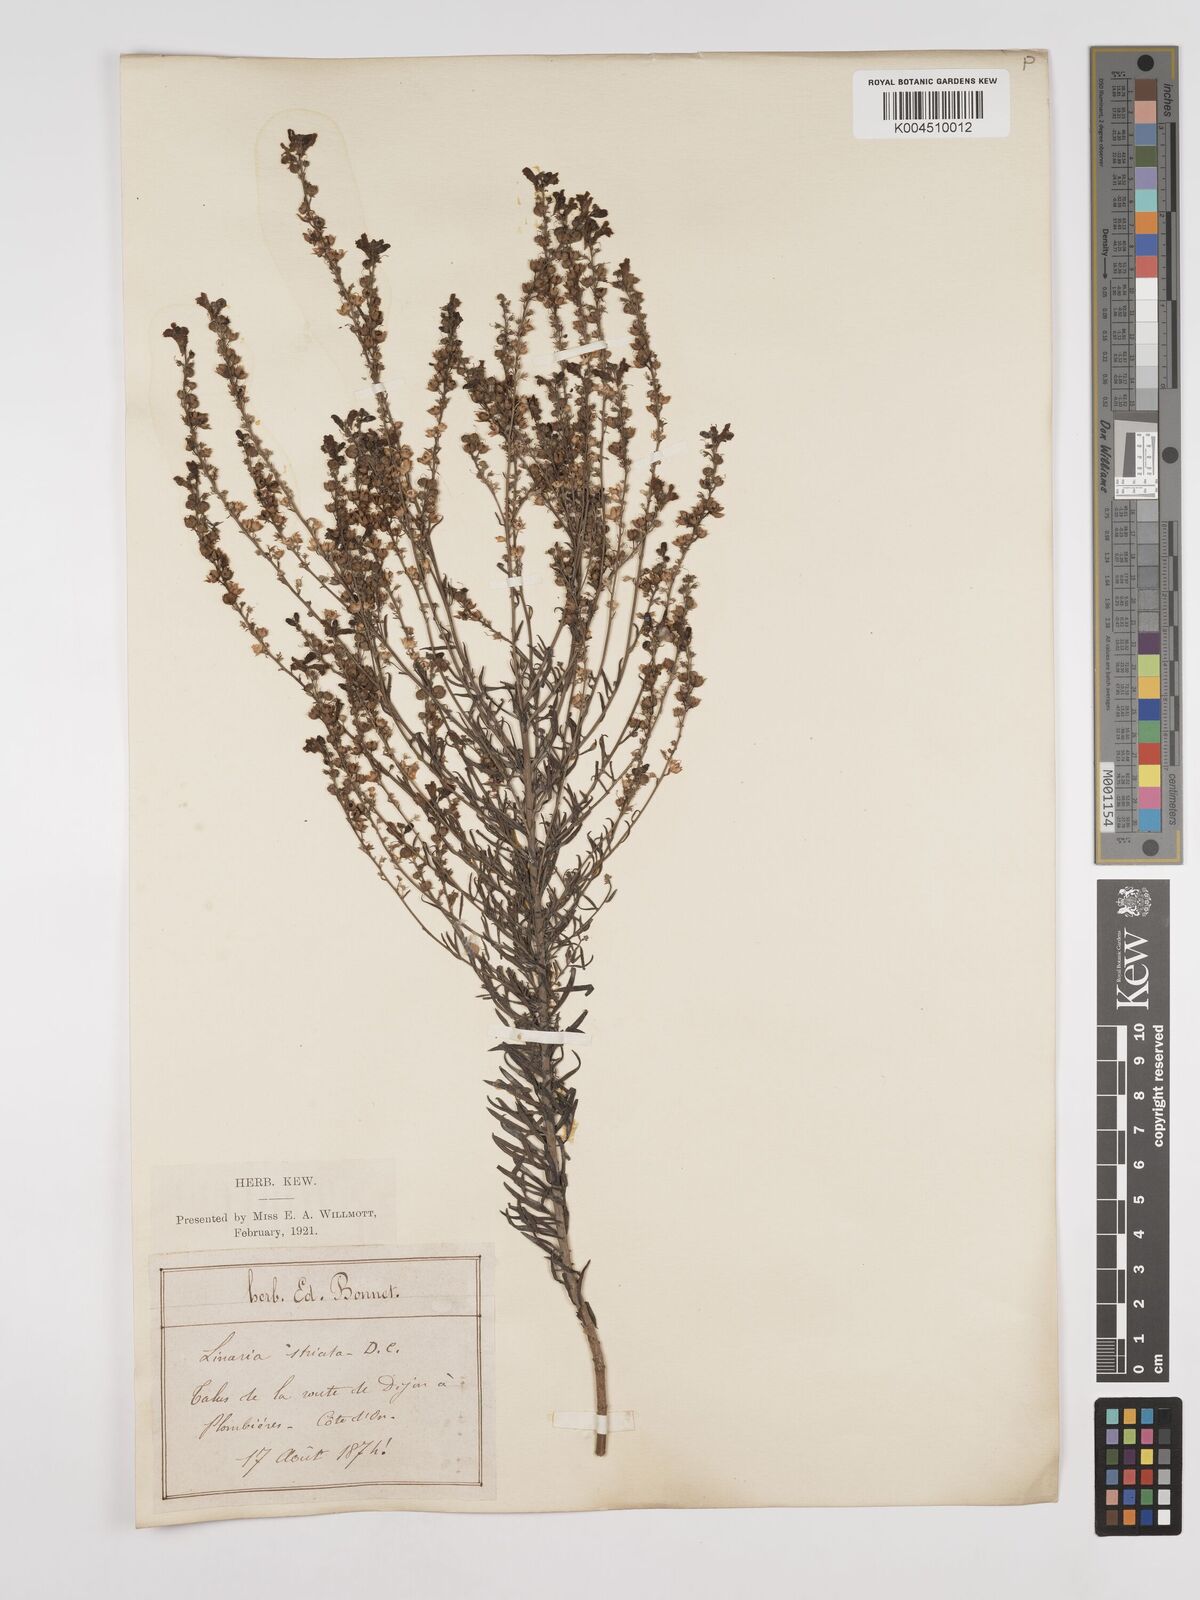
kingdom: Plantae
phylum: Tracheophyta
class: Magnoliopsida
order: Lamiales
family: Plantaginaceae
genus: Linaria
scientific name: Linaria repens
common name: Pale toadflax
